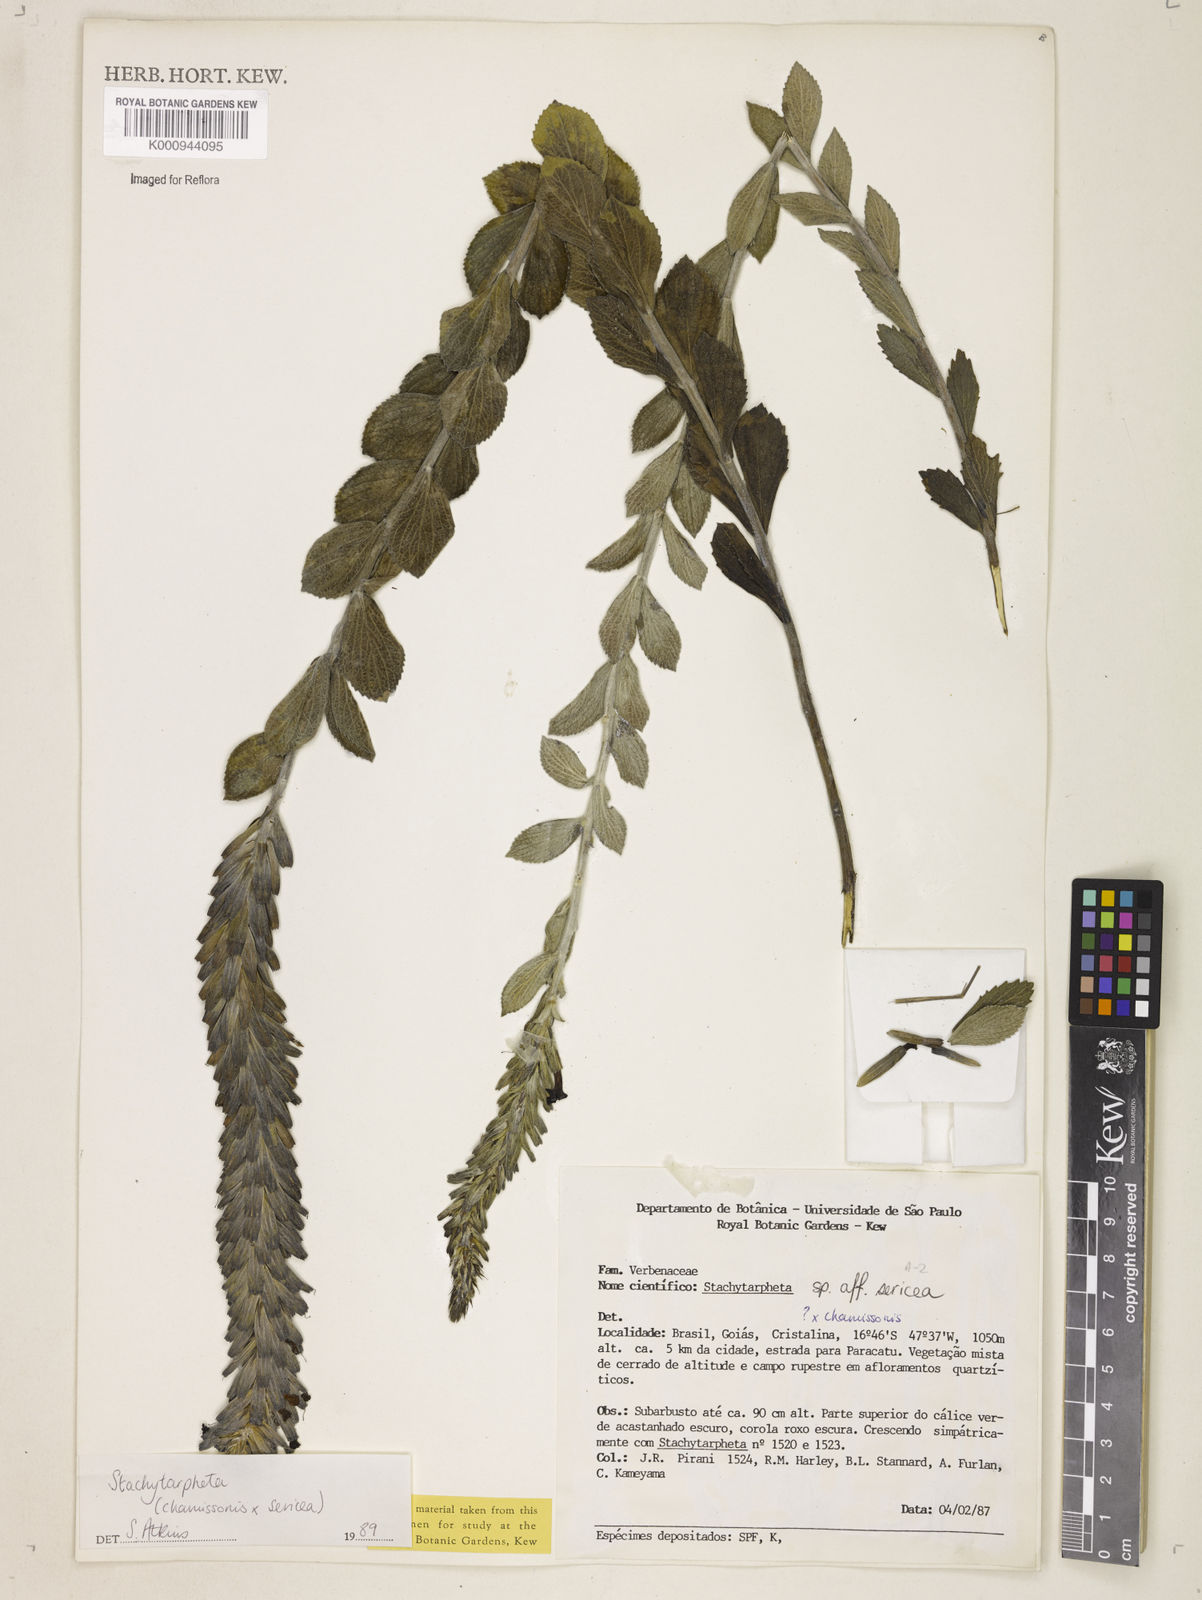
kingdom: Plantae
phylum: Tracheophyta
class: Magnoliopsida
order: Lamiales
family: Verbenaceae
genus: Stachytarpheta
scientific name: Stachytarpheta sericea
